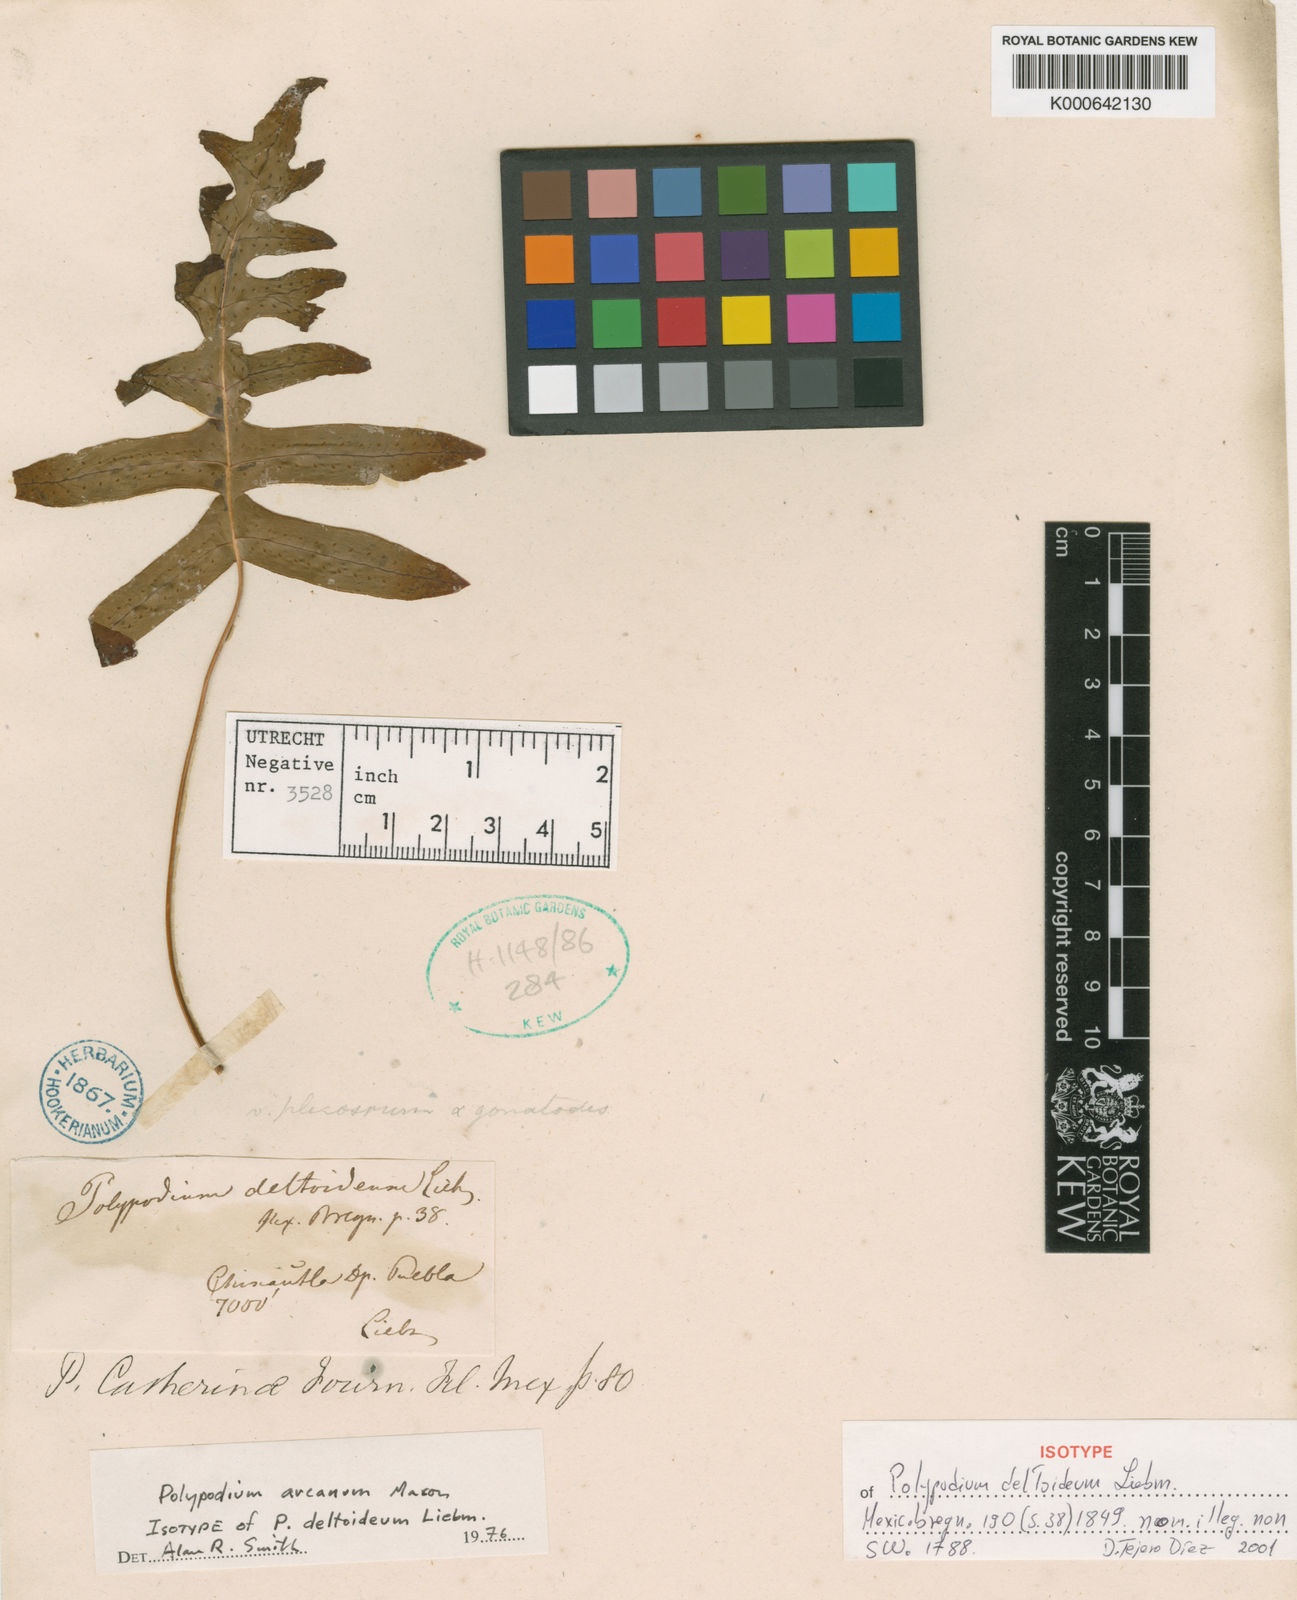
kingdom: Plantae
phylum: Tracheophyta
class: Polypodiopsida
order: Polypodiales
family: Polypodiaceae
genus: Polypodium
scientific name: Polypodium arcanum
